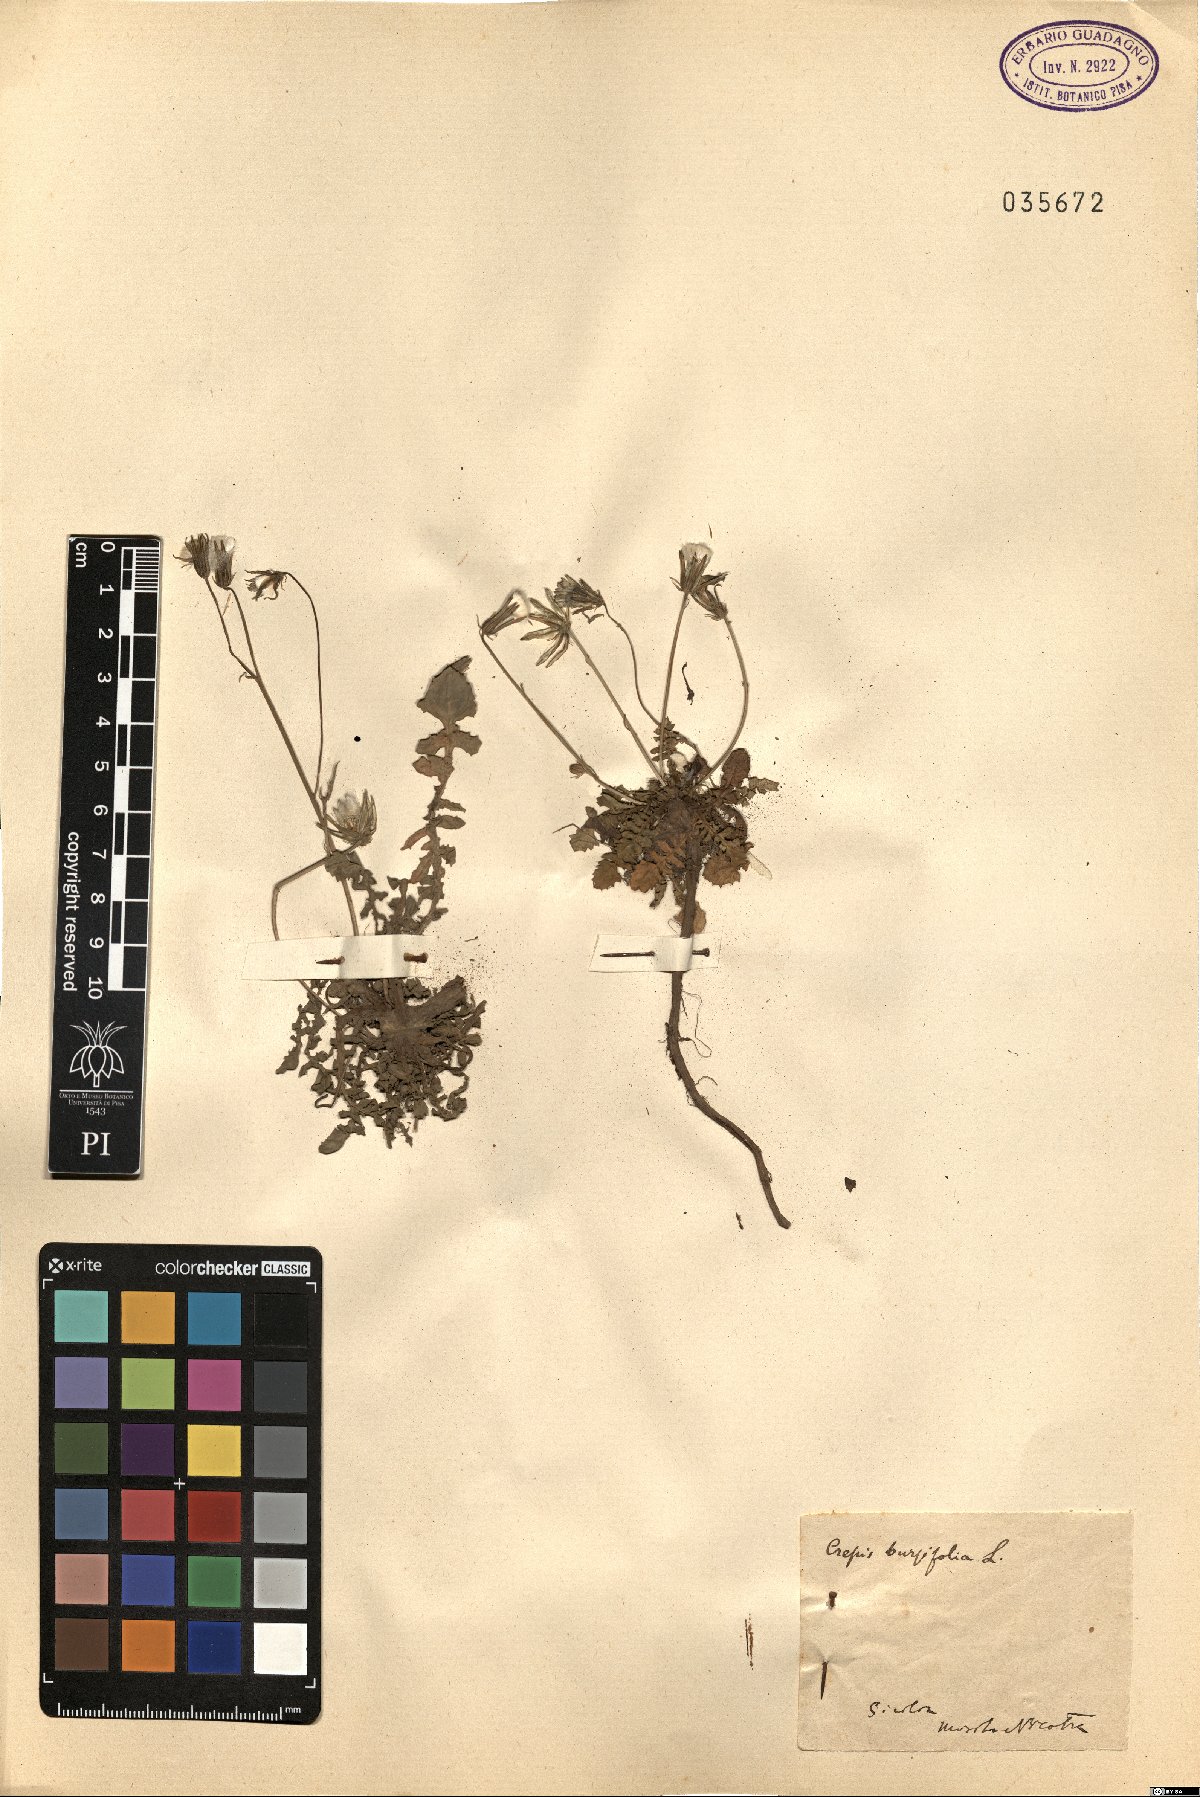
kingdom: Plantae
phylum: Tracheophyta
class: Magnoliopsida
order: Asterales
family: Asteraceae
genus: Crepis
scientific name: Crepis bursifolia
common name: Italian hawksbeard
